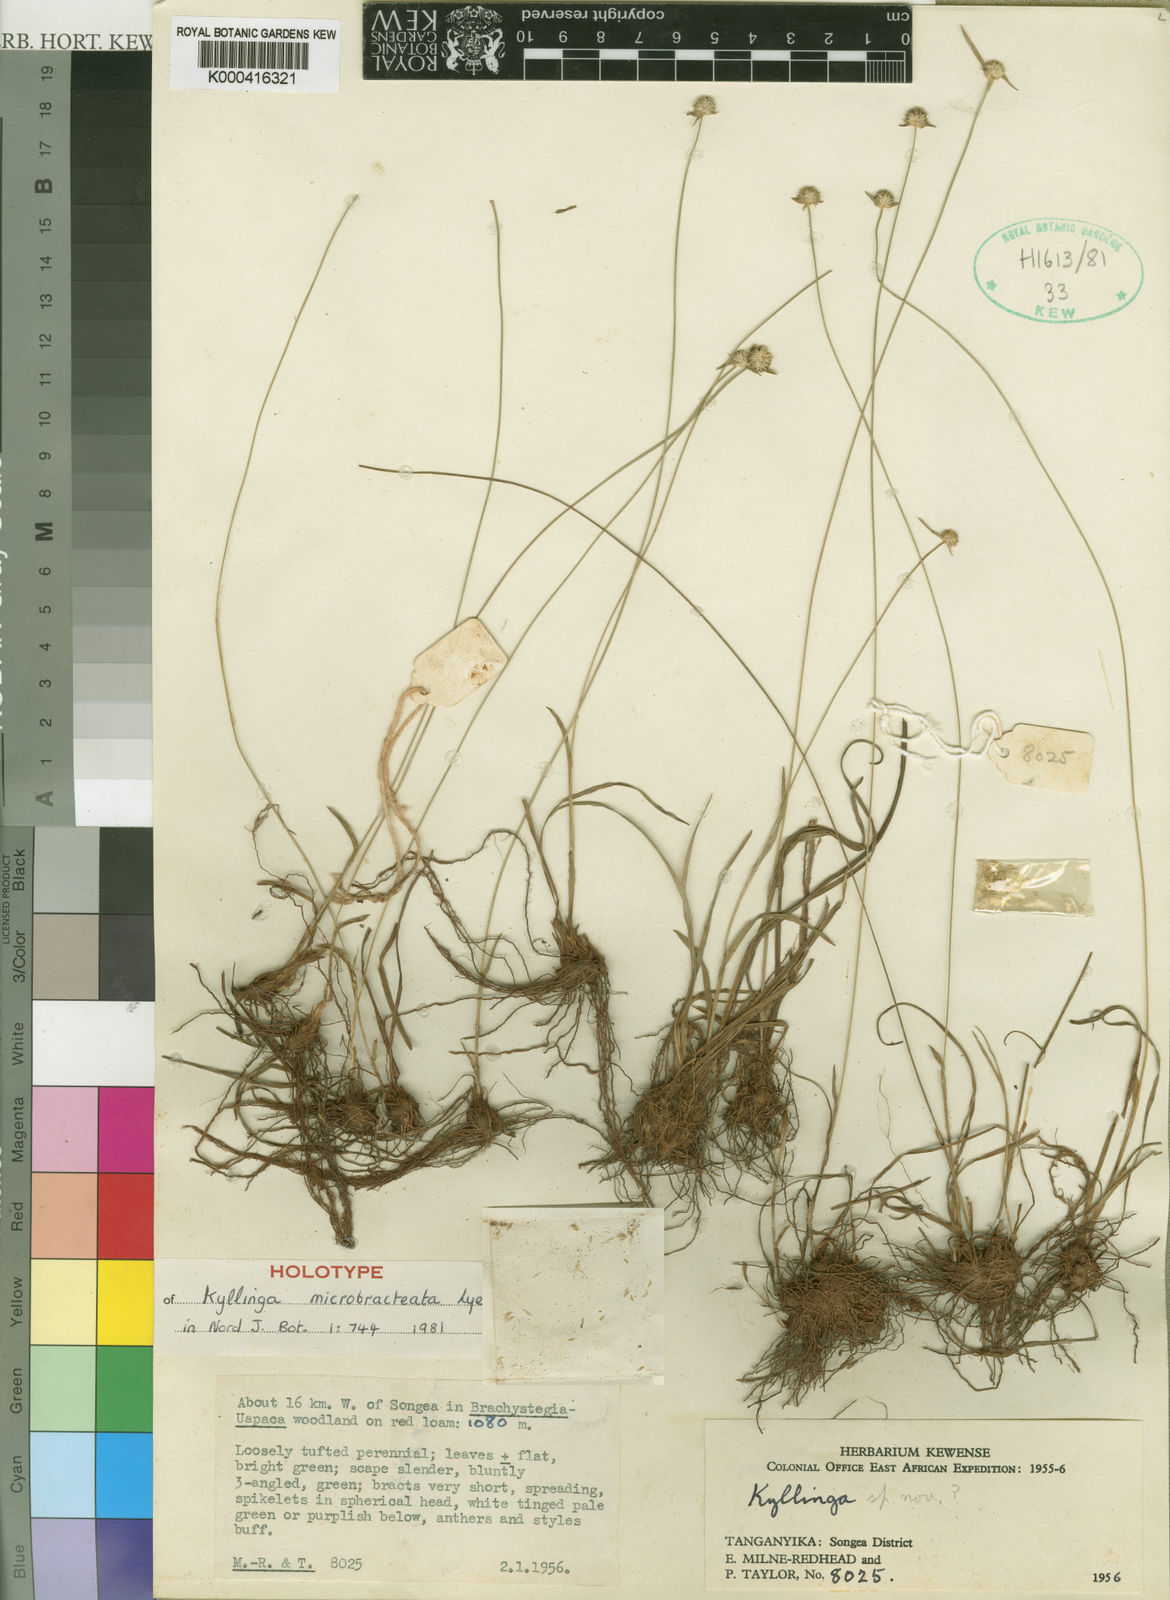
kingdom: Plantae
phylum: Tracheophyta
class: Liliopsida
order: Poales
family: Cyperaceae
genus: Cyperus
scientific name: Cyperus microbracteatus
